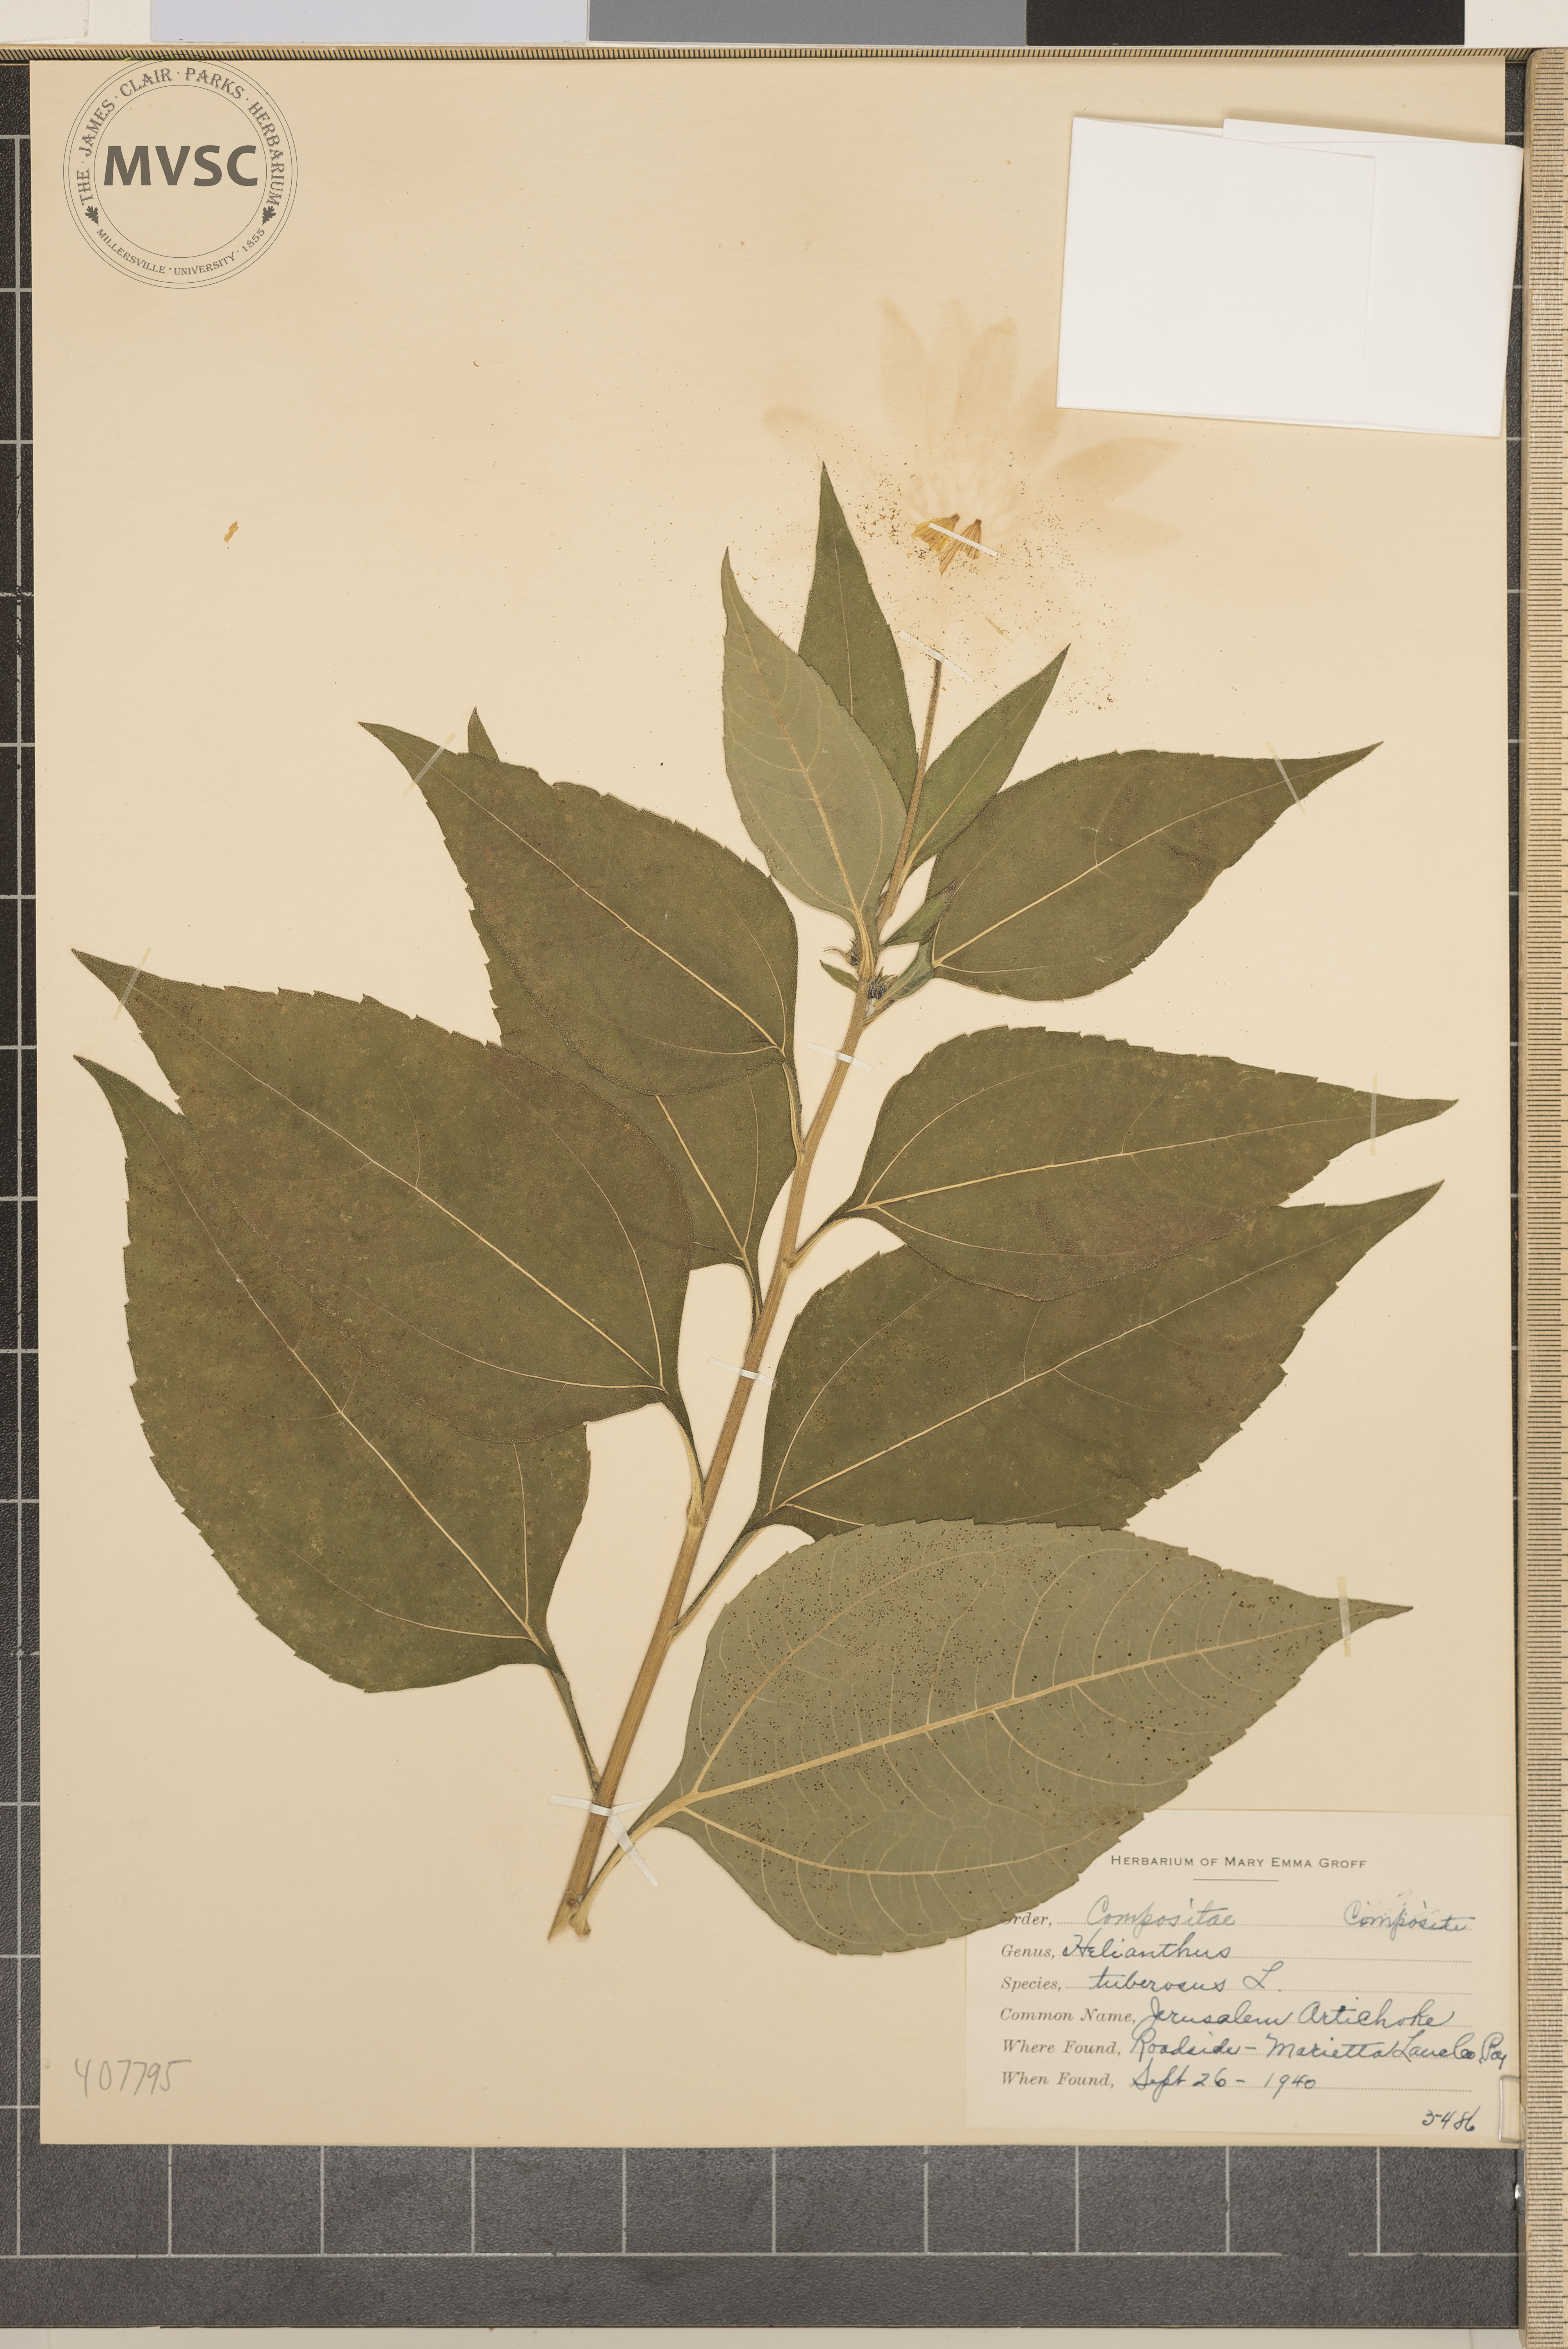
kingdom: Plantae
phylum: Tracheophyta
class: Magnoliopsida
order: Asterales
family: Asteraceae
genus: Helianthus
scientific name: Helianthus tuberosus
